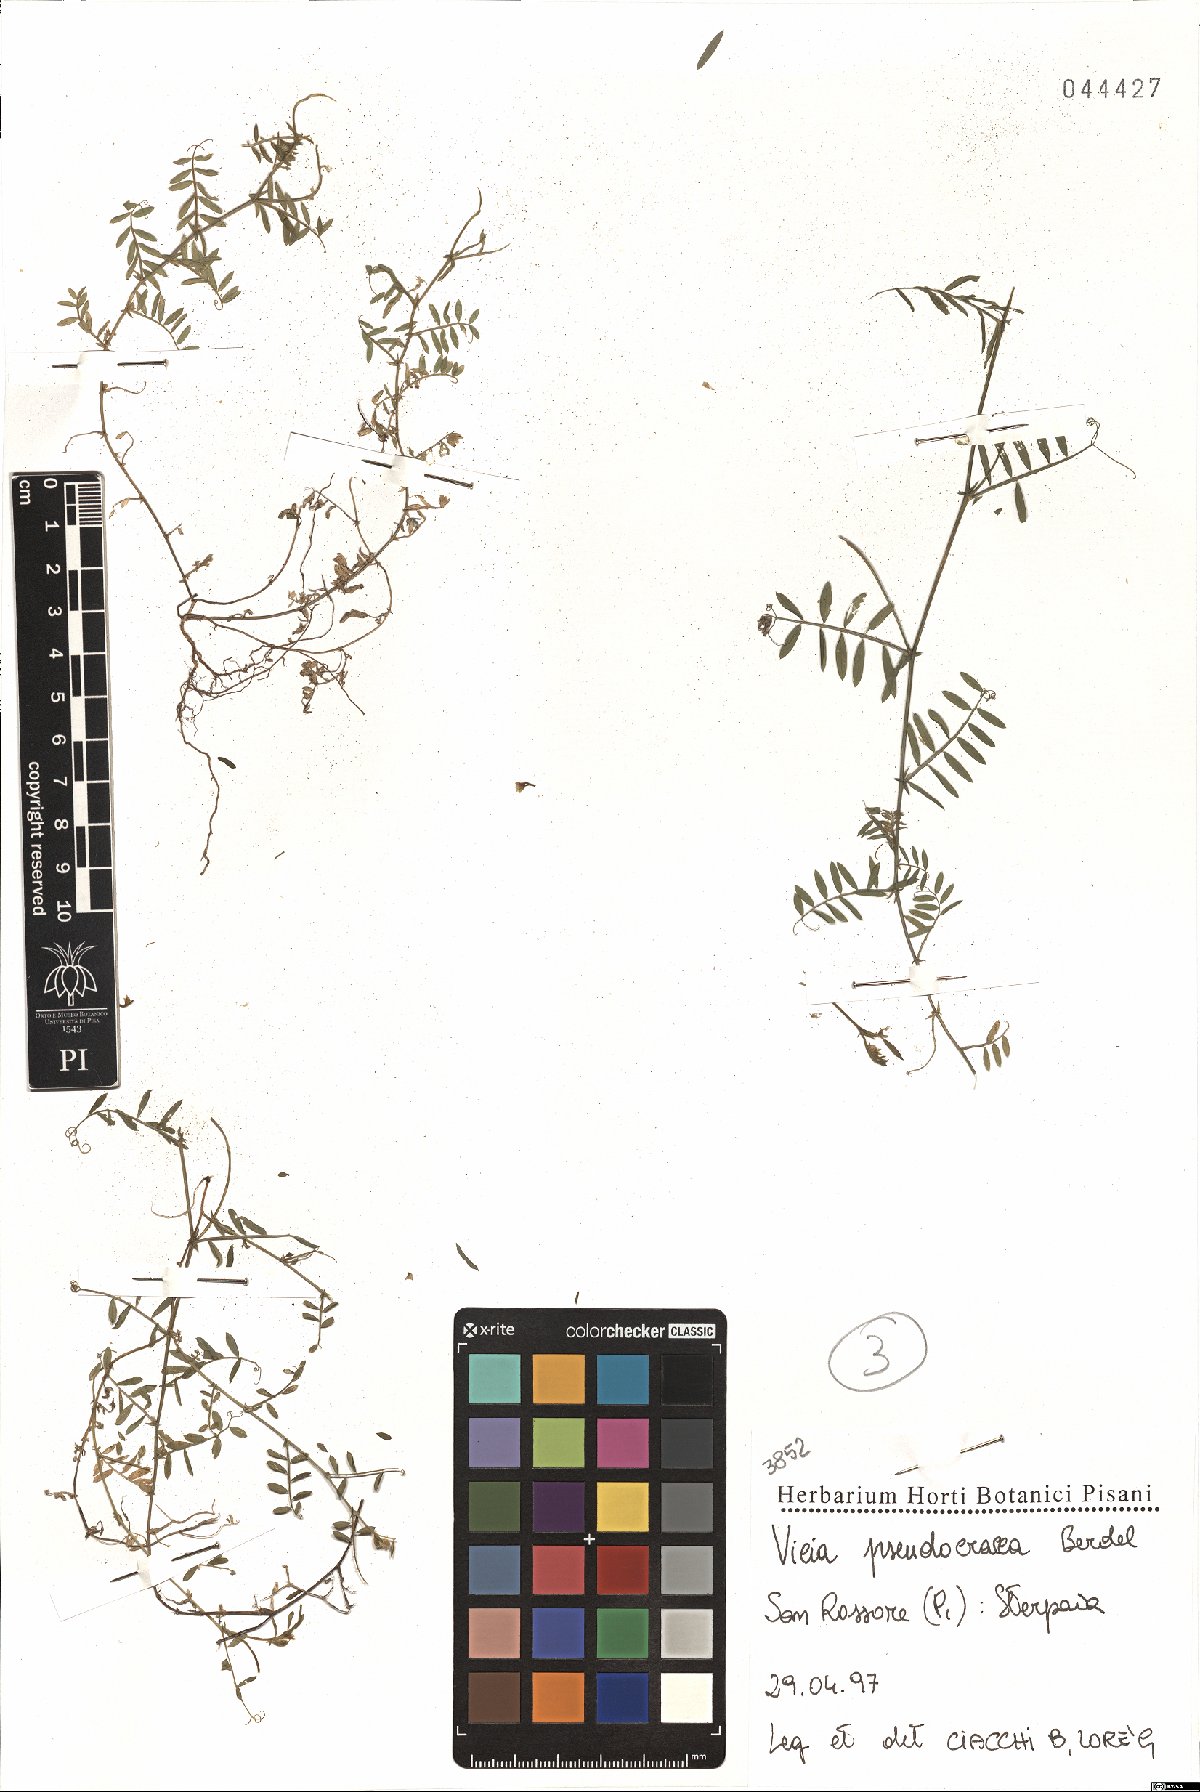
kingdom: Plantae
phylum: Tracheophyta
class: Magnoliopsida
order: Fabales
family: Fabaceae
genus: Vicia
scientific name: Vicia villosa
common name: Fodder vetch
